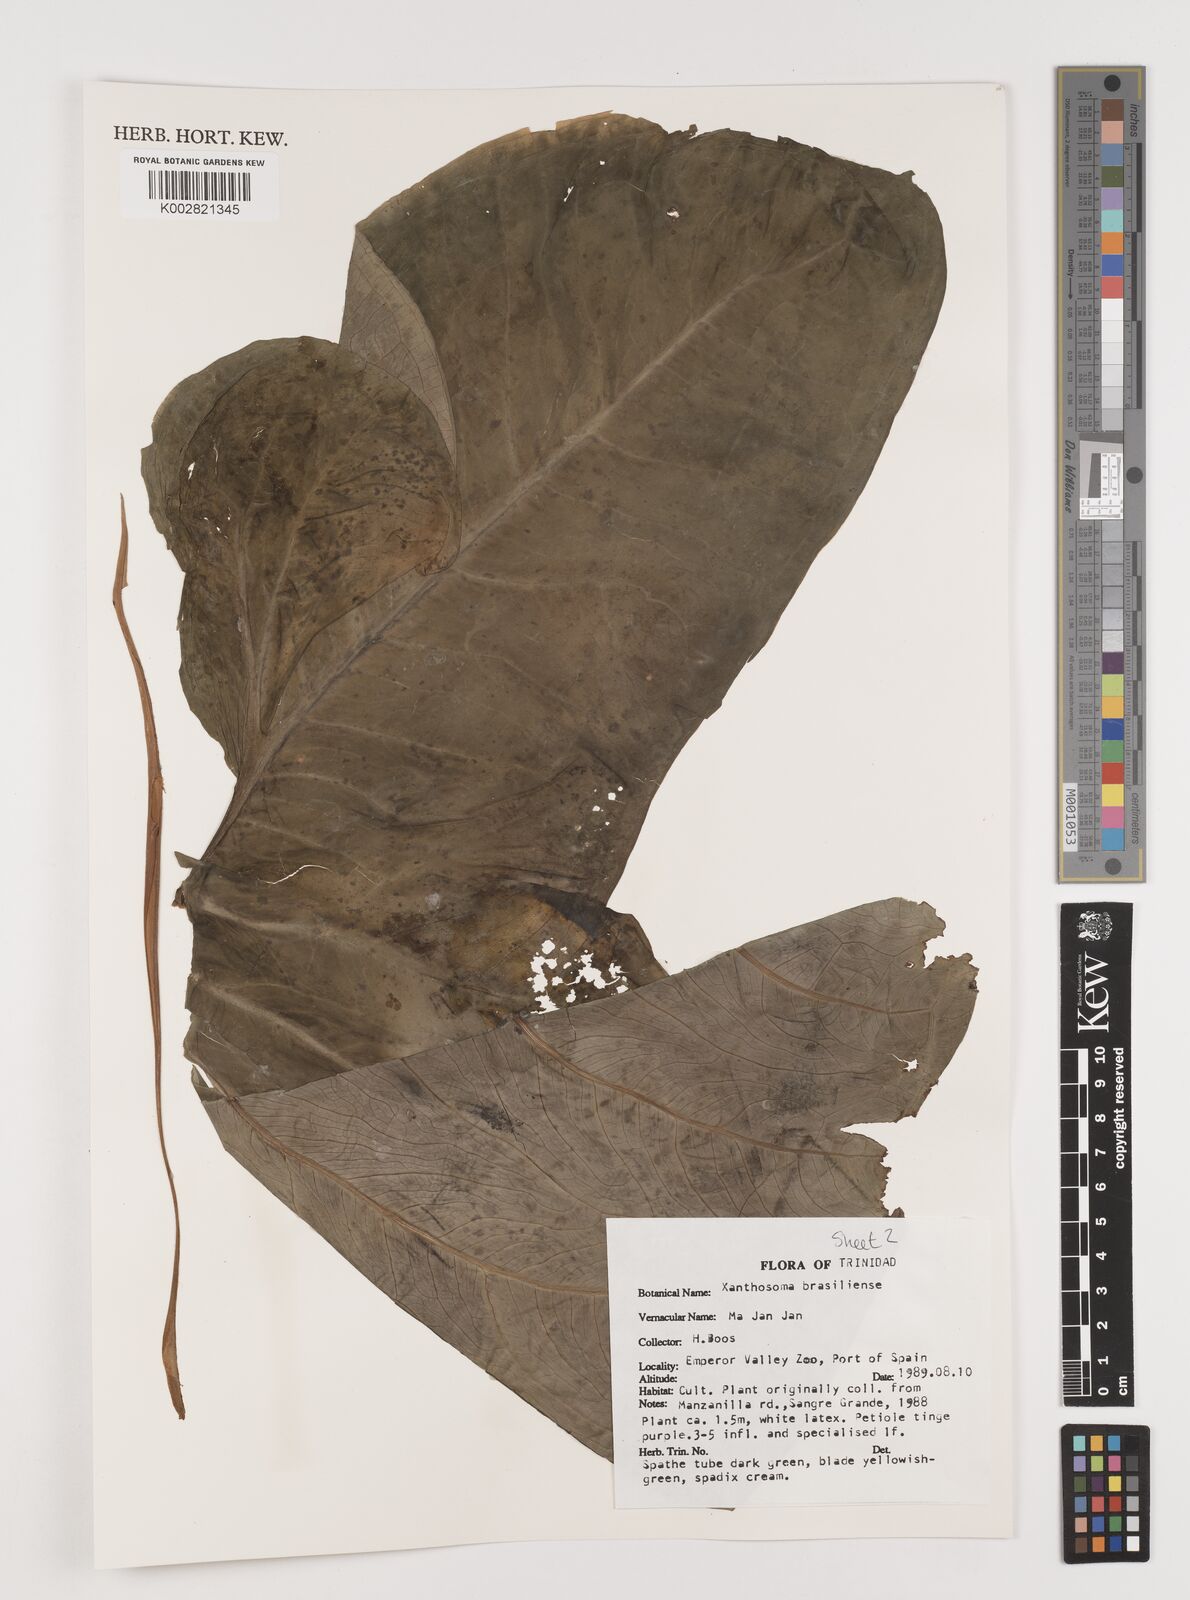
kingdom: Plantae
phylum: Tracheophyta
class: Liliopsida
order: Alismatales
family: Araceae
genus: Xanthosoma
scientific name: Xanthosoma brasiliense
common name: Tahitian-spinach
